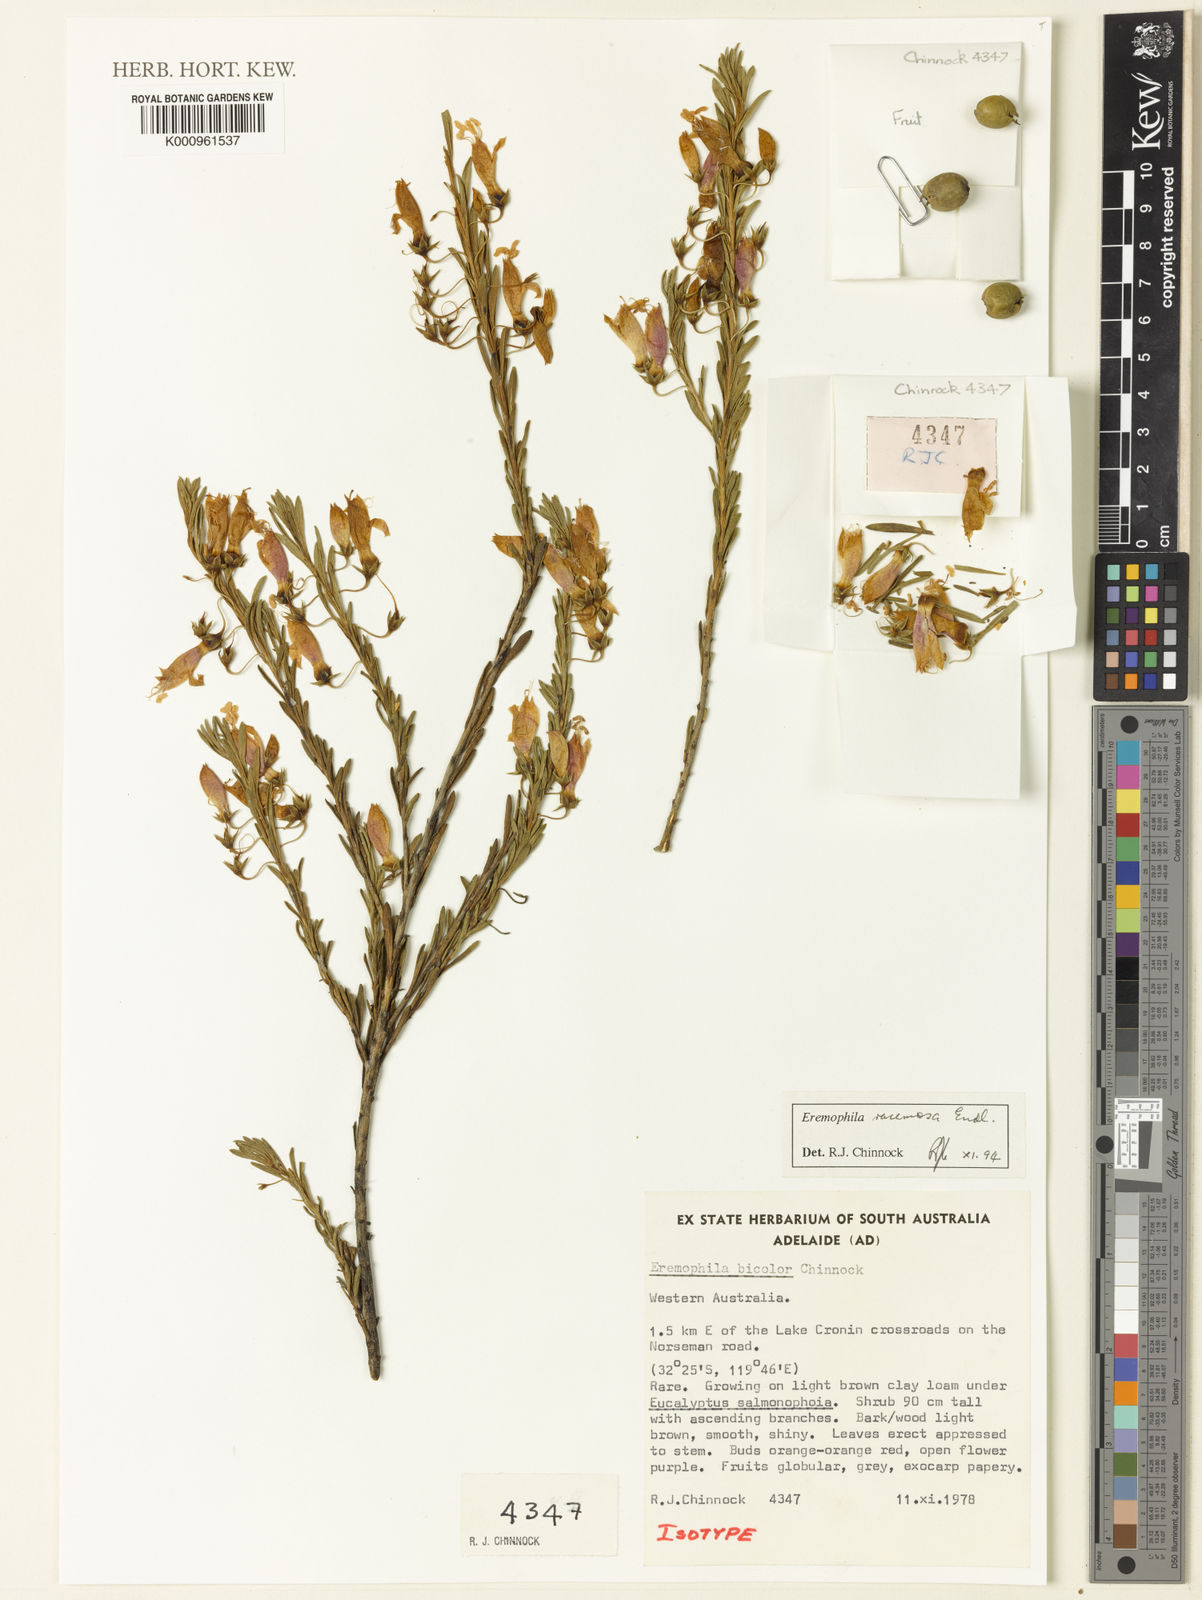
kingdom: Plantae
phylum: Tracheophyta
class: Magnoliopsida
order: Lamiales
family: Scrophulariaceae
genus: Eremophila
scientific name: Eremophila racemosa
